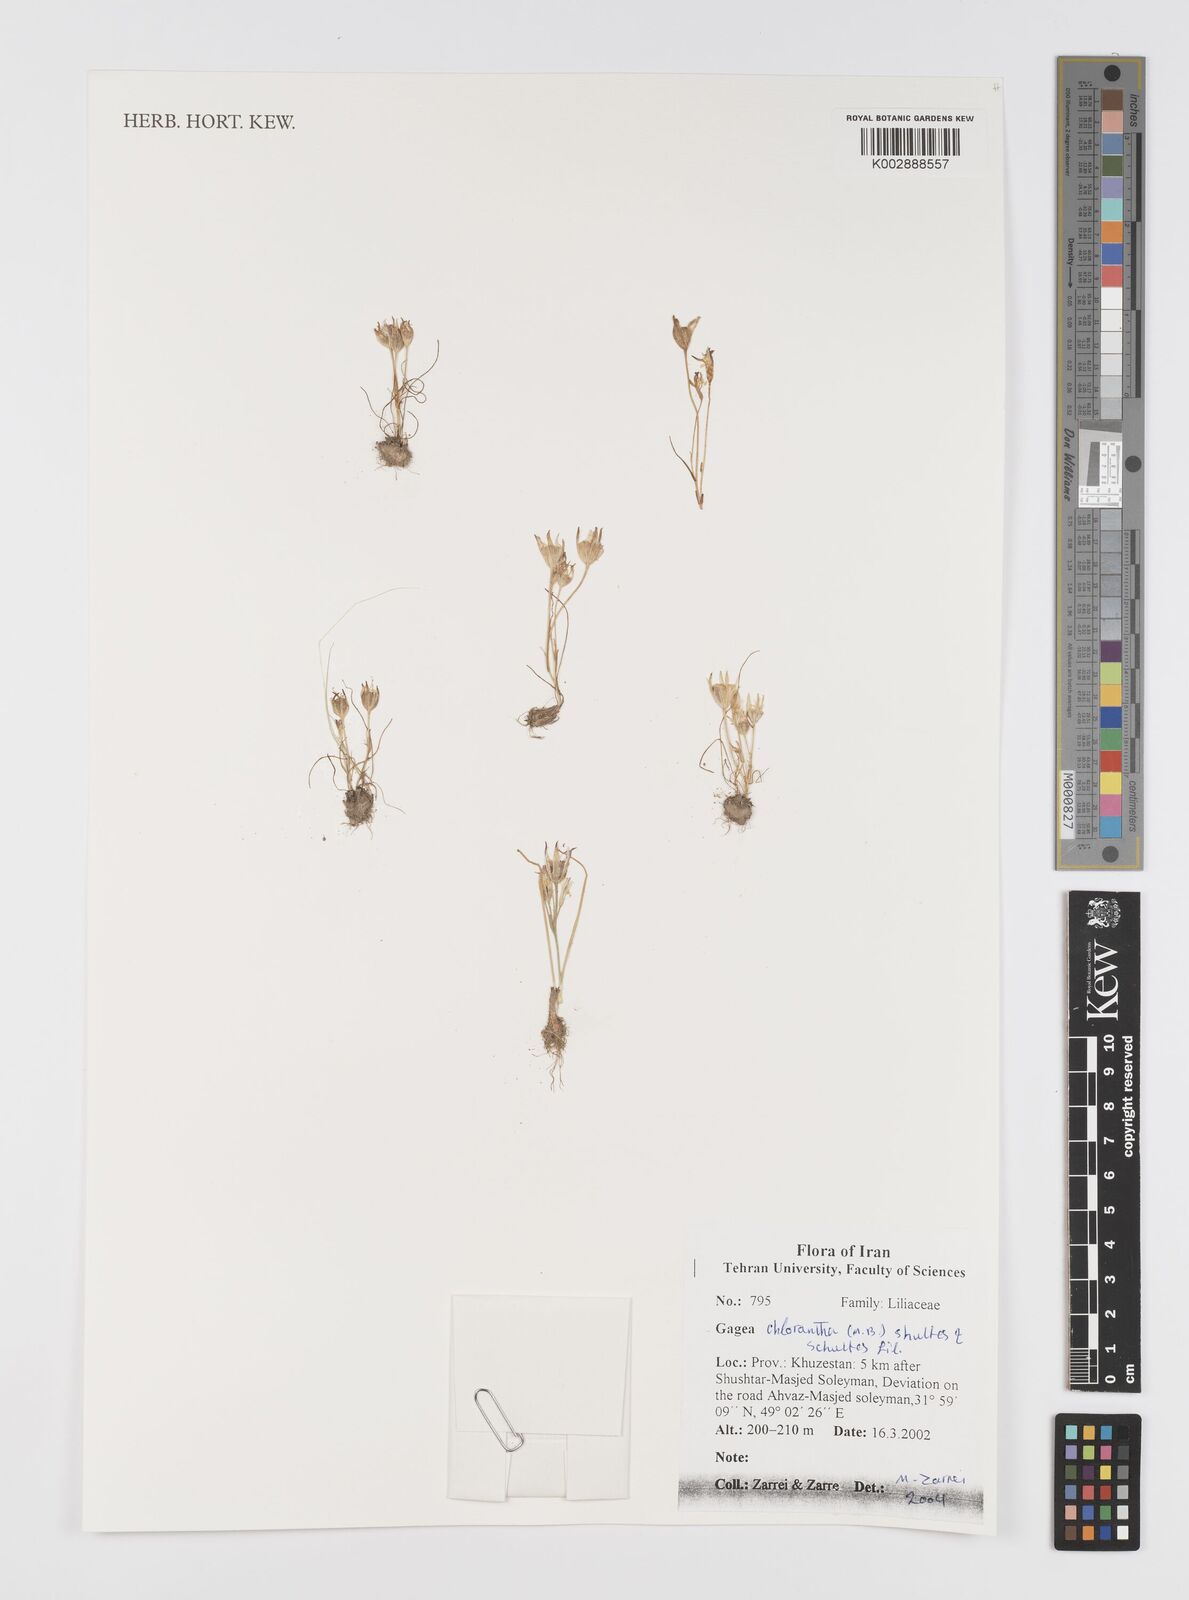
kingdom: Plantae
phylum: Tracheophyta
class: Liliopsida
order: Liliales
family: Liliaceae
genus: Gagea
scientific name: Gagea chlorantha
